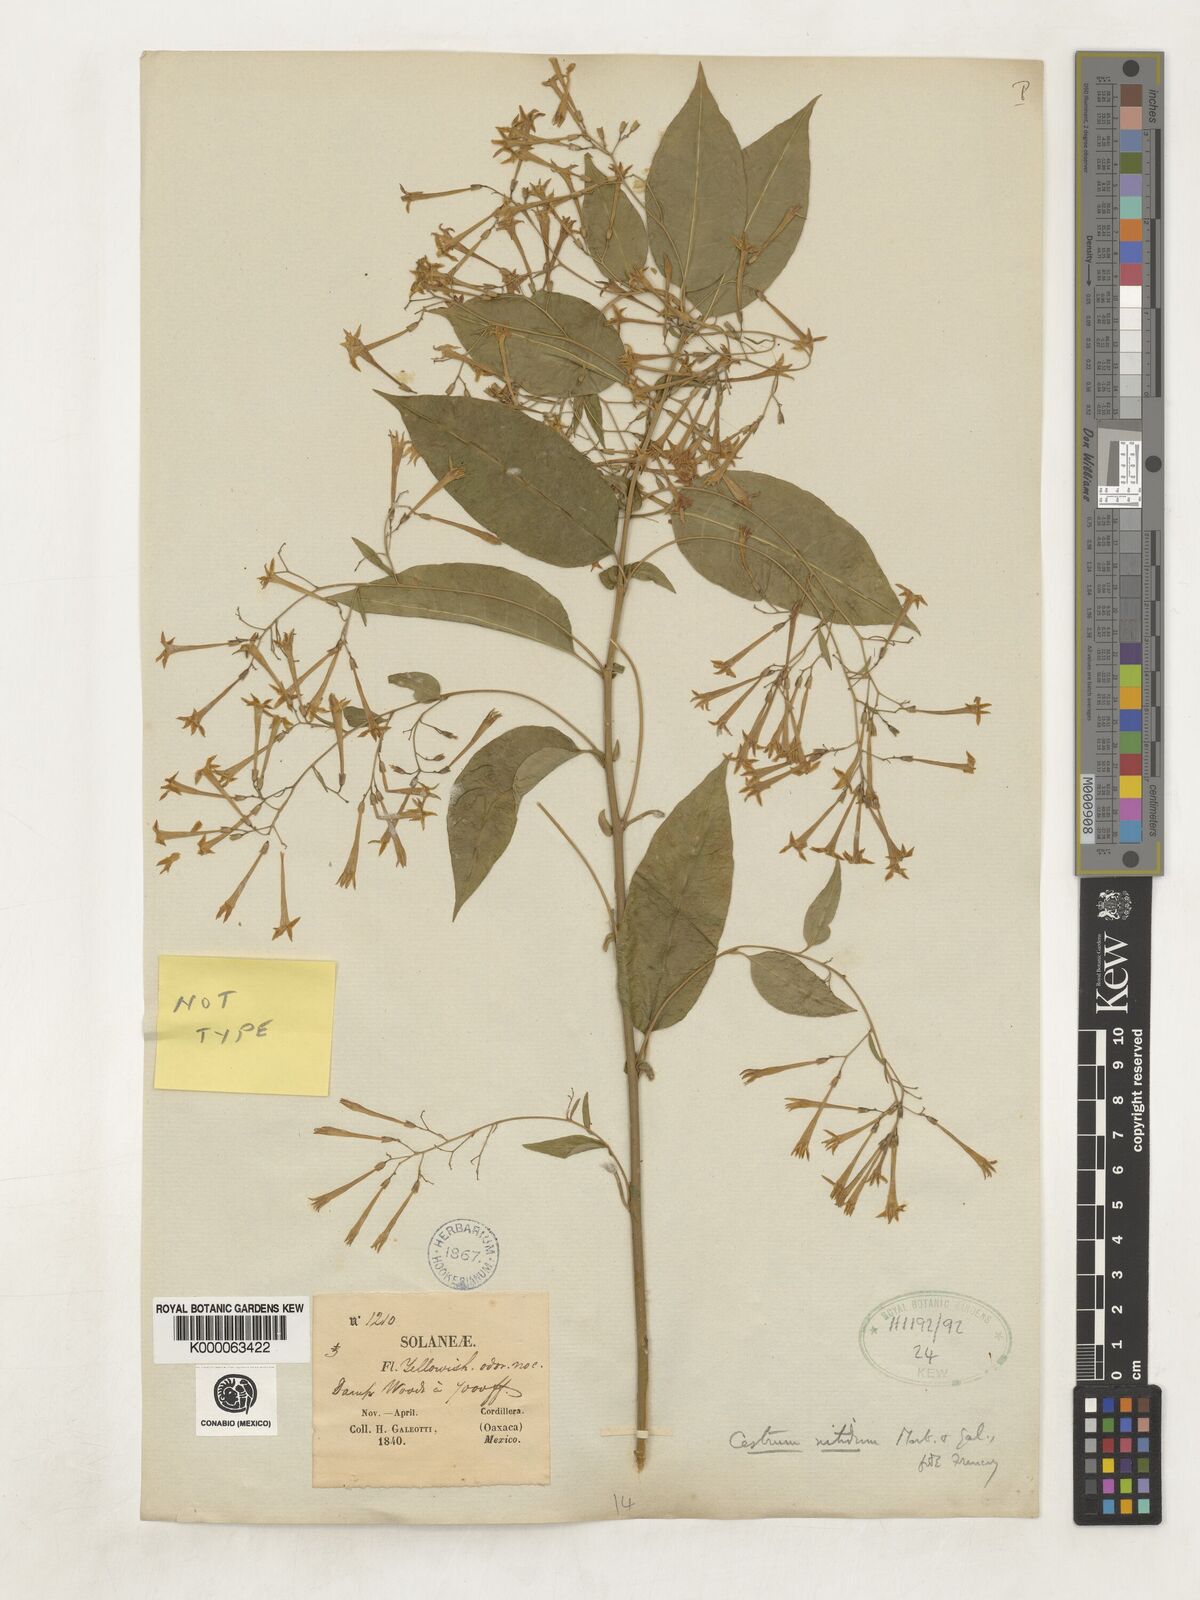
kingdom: Plantae
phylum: Tracheophyta
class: Magnoliopsida
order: Solanales
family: Solanaceae
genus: Cestrum
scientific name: Cestrum nitidum
